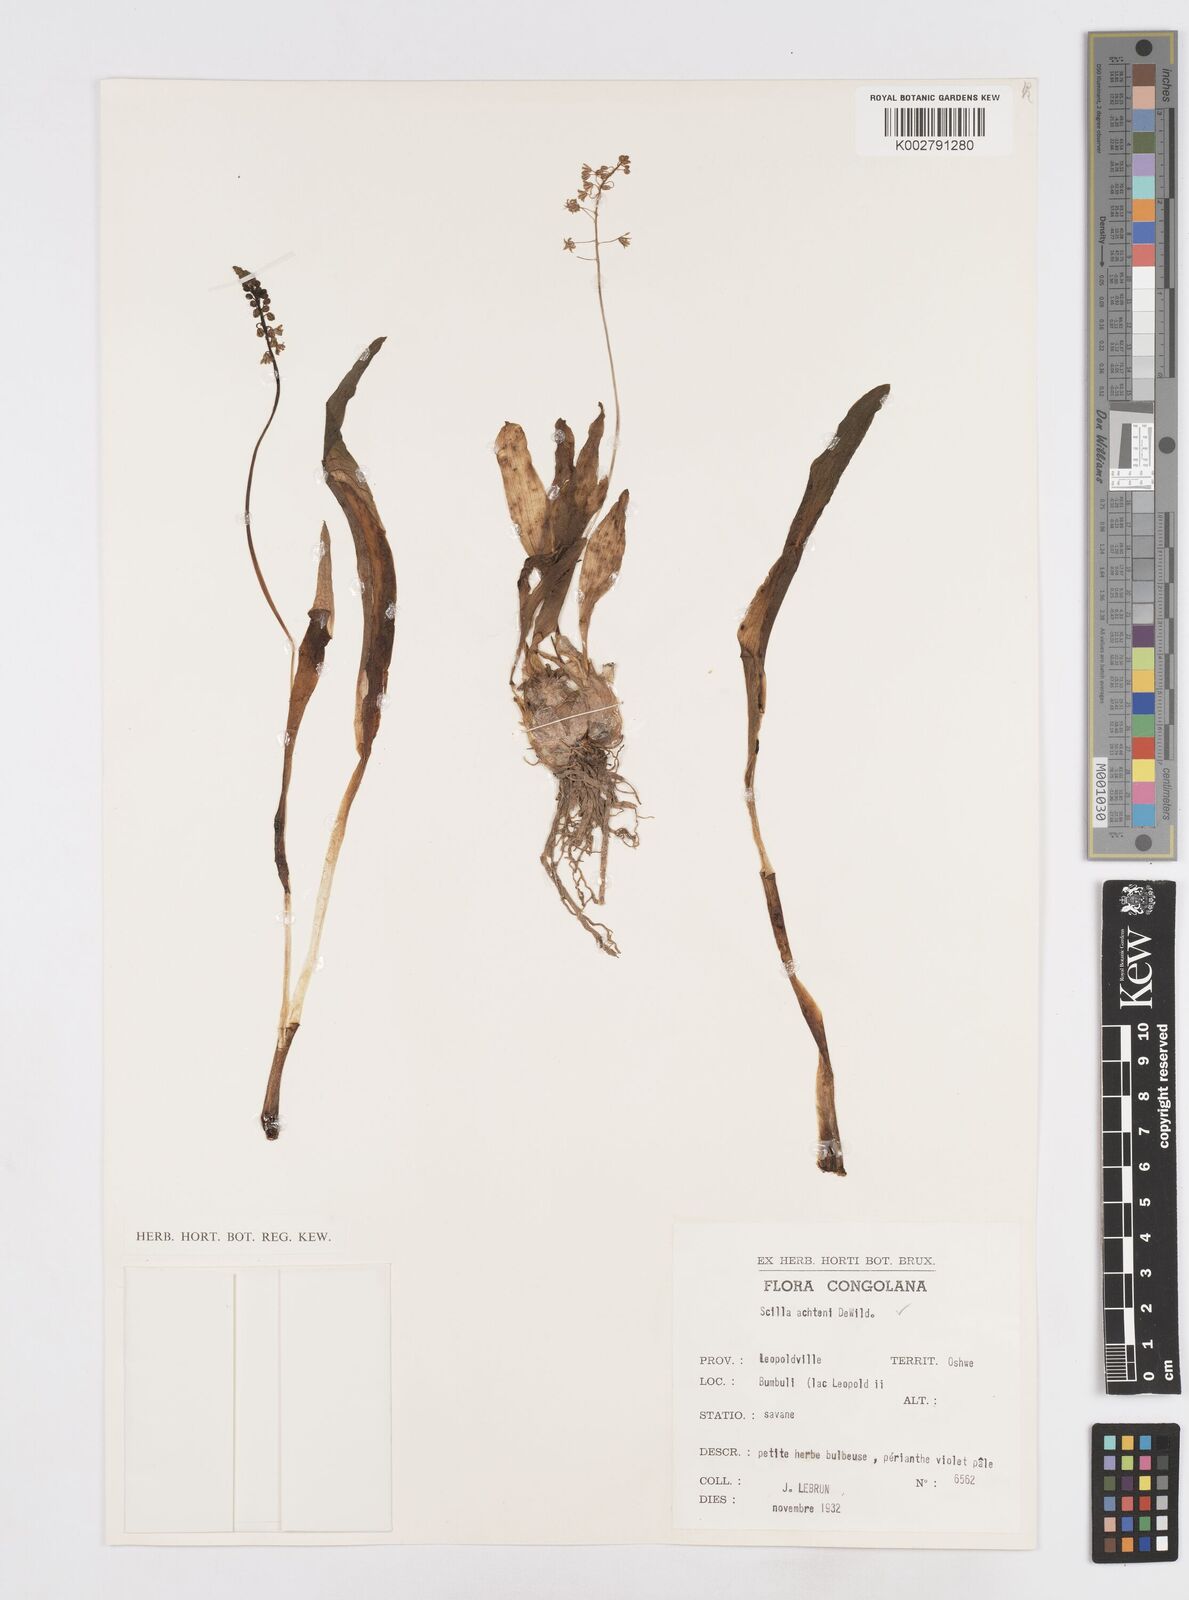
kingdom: Plantae
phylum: Tracheophyta
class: Liliopsida
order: Asparagales
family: Asparagaceae
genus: Scilla
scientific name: Scilla achtenii
